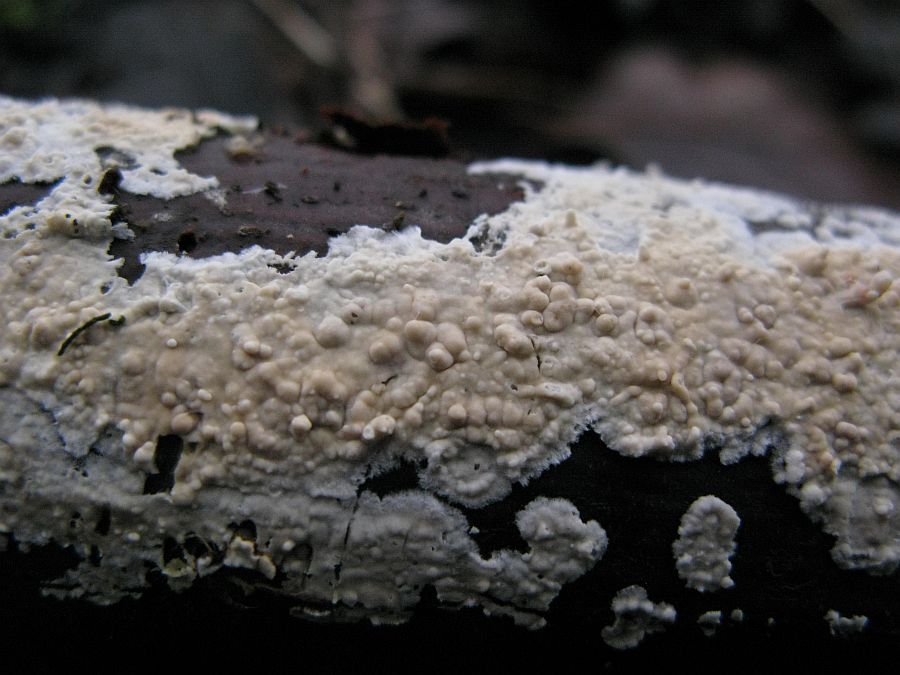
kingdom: Fungi
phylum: Basidiomycota
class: Agaricomycetes
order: Agaricales
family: Physalacriaceae
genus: Cylindrobasidium
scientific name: Cylindrobasidium evolvens
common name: sprækkehinde
